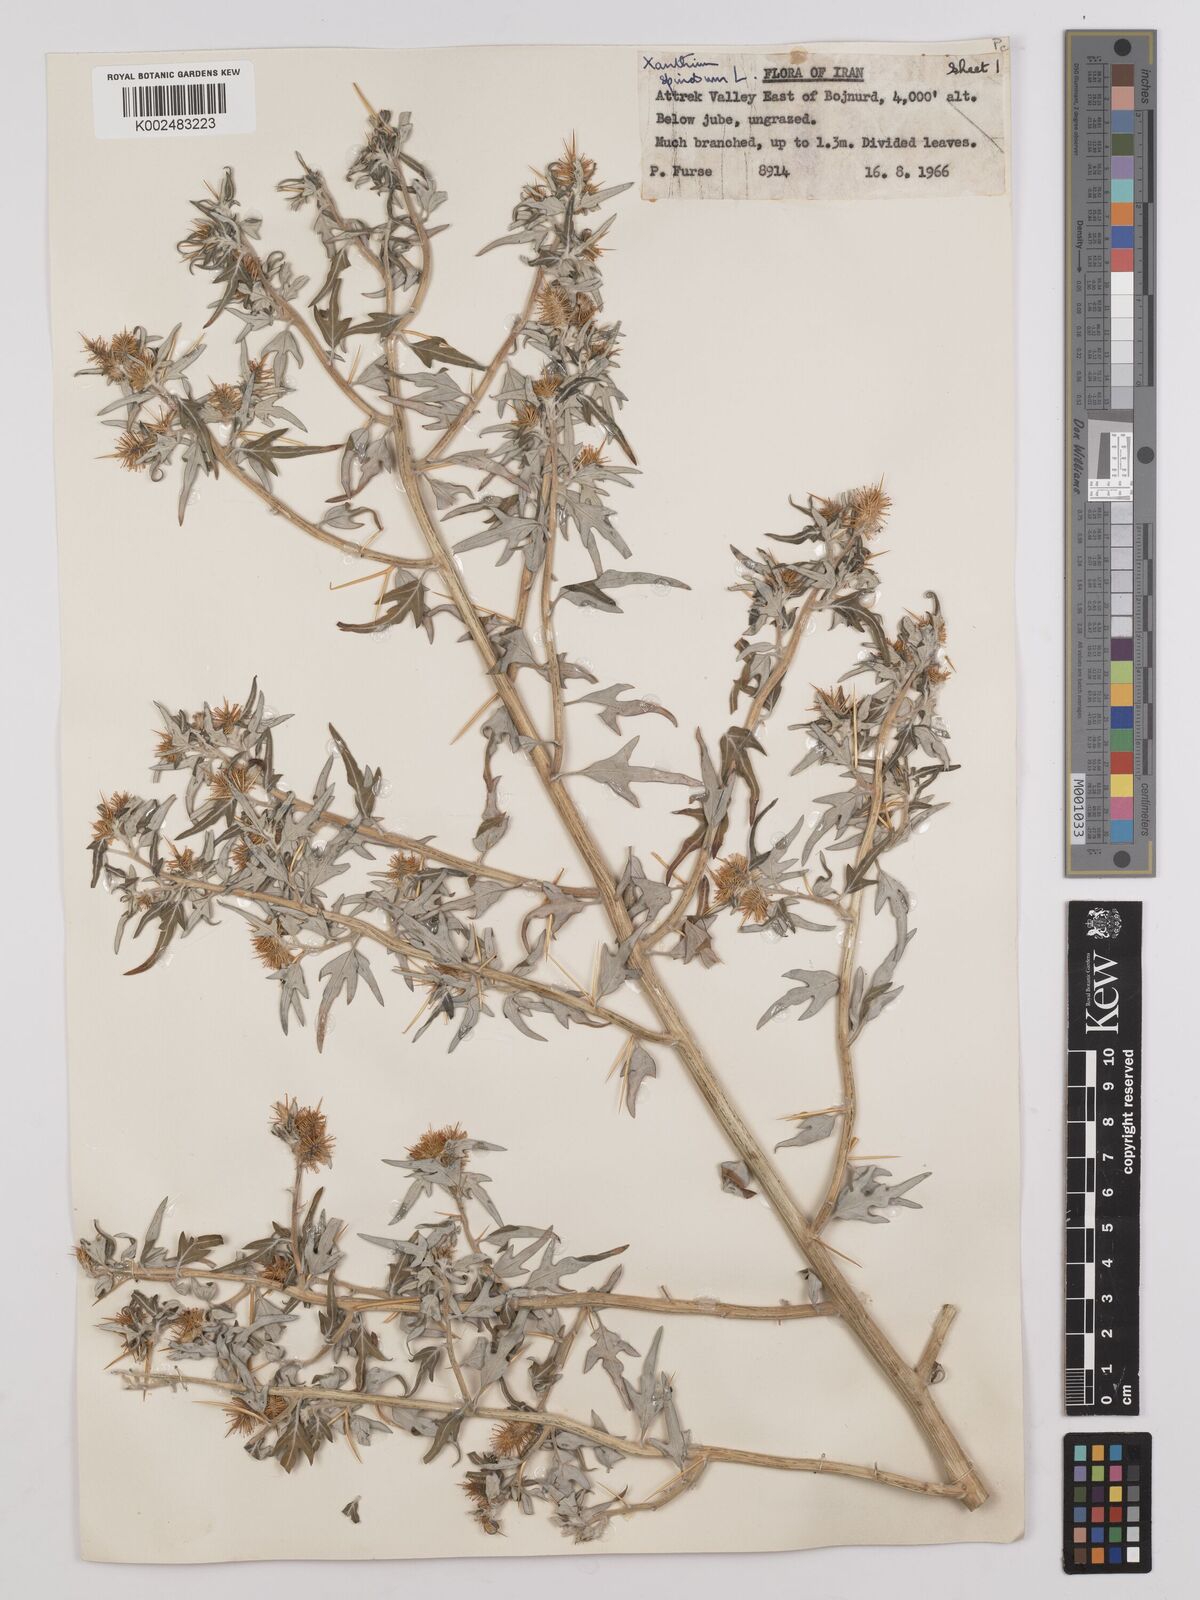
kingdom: Plantae
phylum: Tracheophyta
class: Magnoliopsida
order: Asterales
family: Asteraceae
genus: Xanthium
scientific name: Xanthium spinosum
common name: Spiny cocklebur
